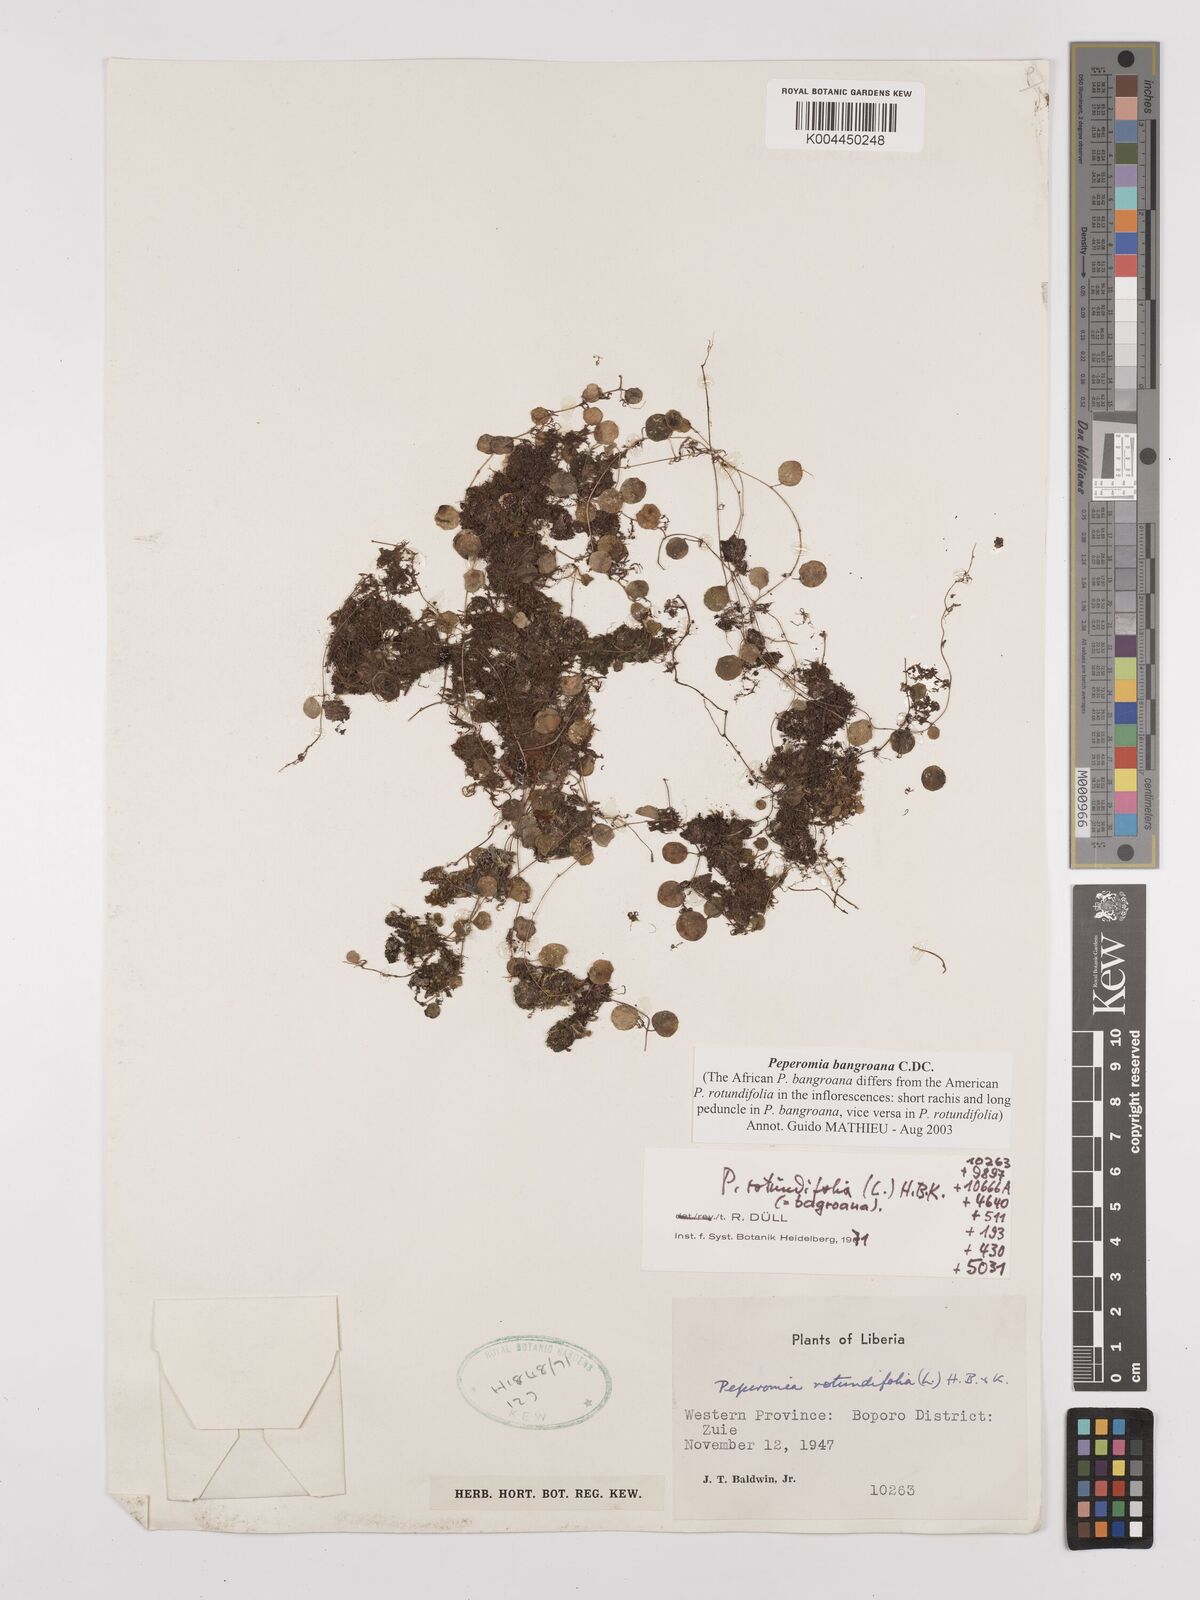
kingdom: Plantae
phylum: Tracheophyta
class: Magnoliopsida
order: Piperales
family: Piperaceae
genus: Peperomia
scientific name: Peperomia bangroana
